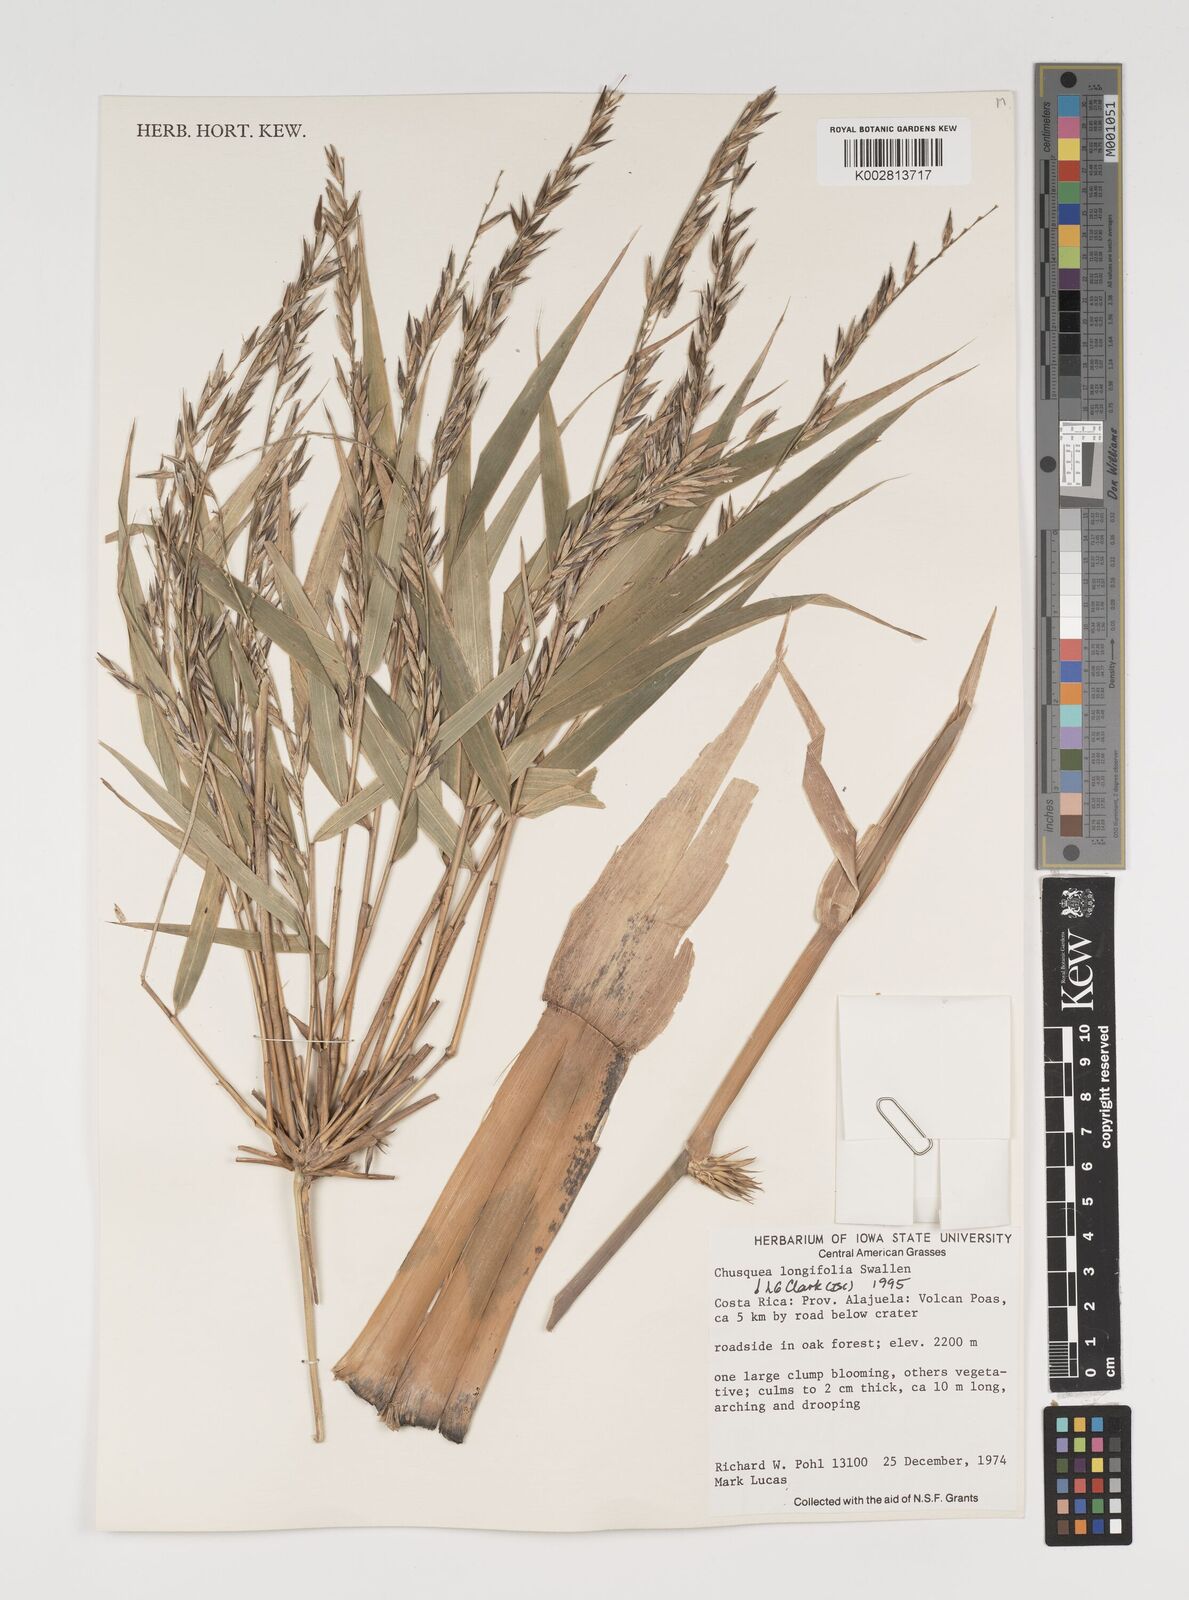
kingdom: Plantae
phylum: Tracheophyta
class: Liliopsida
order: Poales
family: Poaceae
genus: Chusquea
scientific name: Chusquea longifolia
